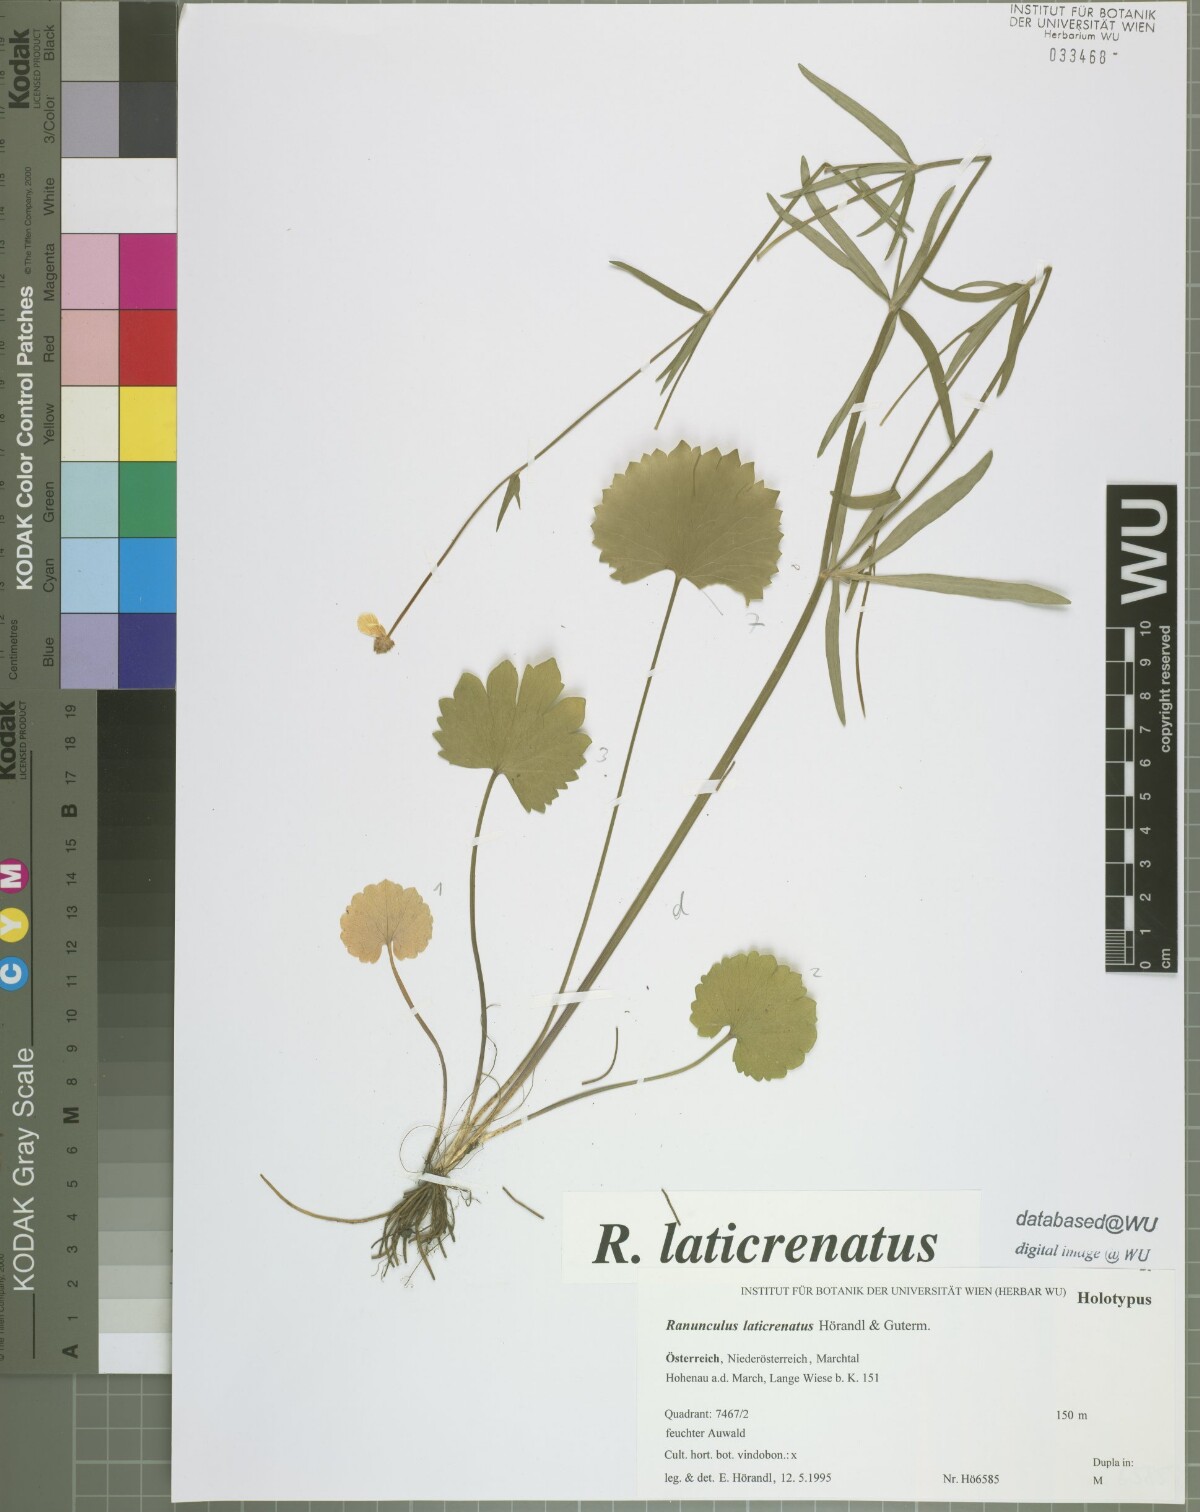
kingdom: Plantae
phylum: Tracheophyta
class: Magnoliopsida
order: Ranunculales
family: Ranunculaceae
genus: Ranunculus
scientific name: Ranunculus laticrenatus
